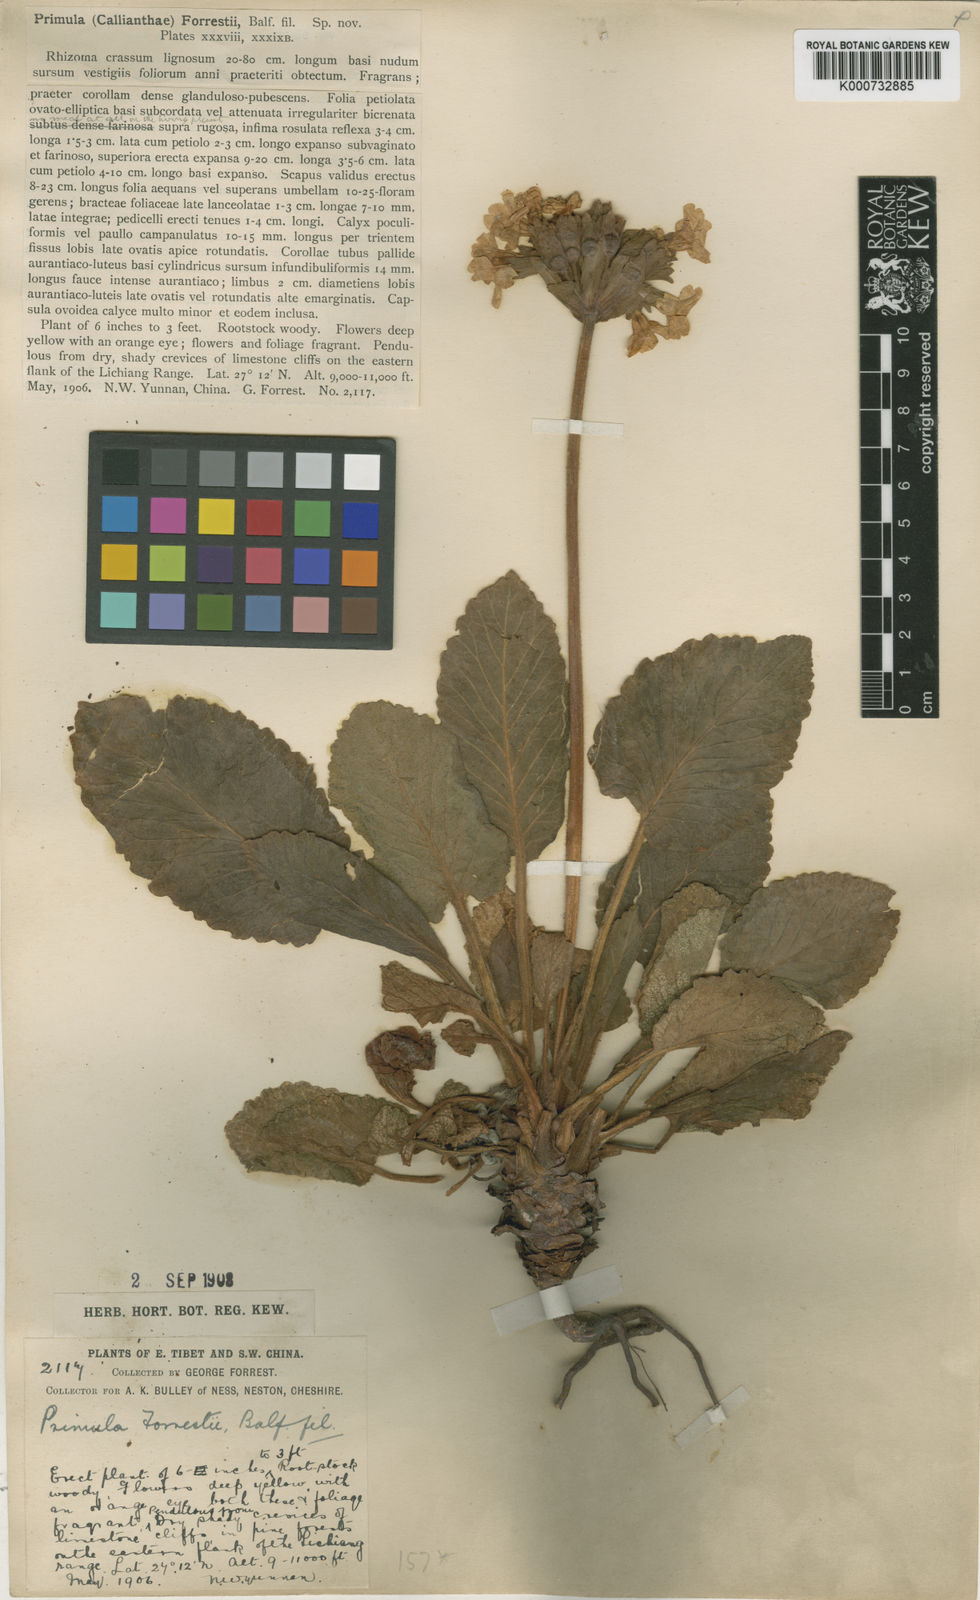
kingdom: Plantae
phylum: Tracheophyta
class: Magnoliopsida
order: Ericales
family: Primulaceae
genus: Primula
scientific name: Primula bullata
